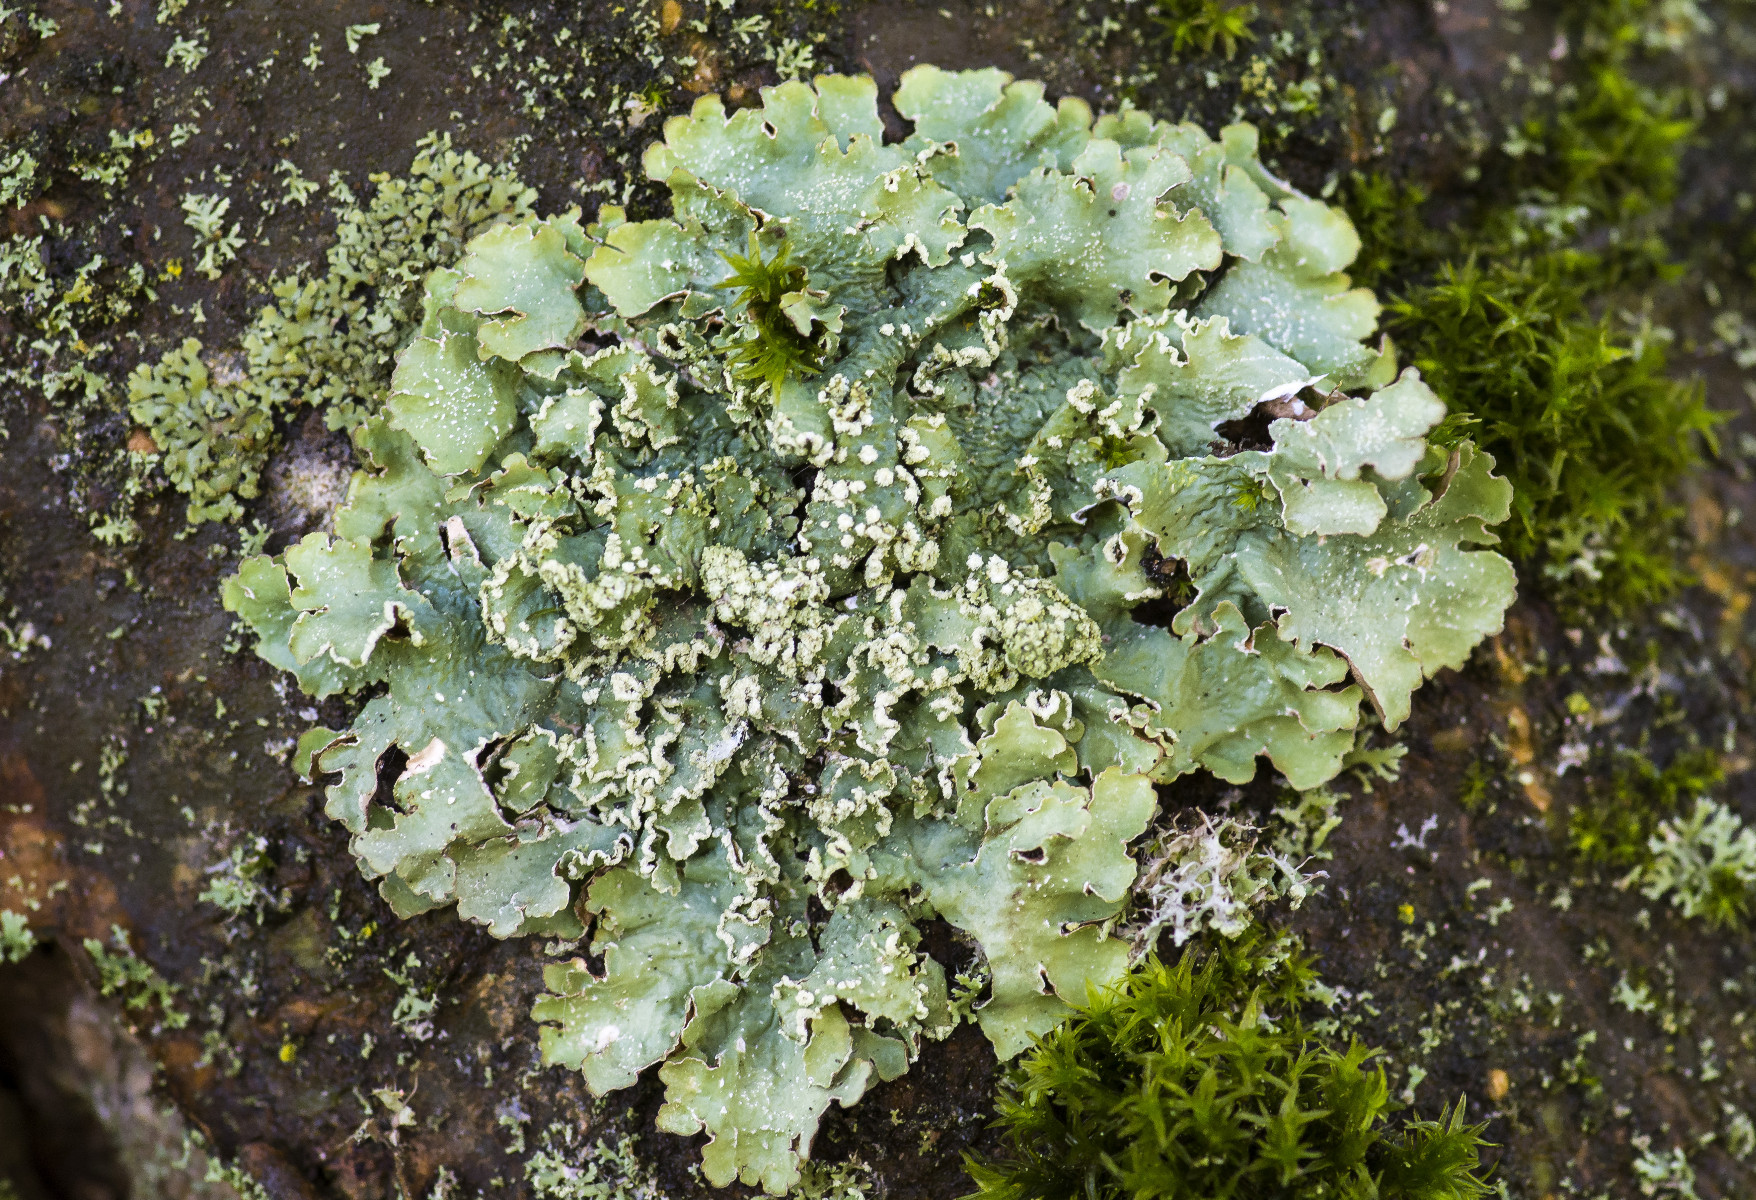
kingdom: Fungi
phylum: Ascomycota
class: Lecanoromycetes
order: Lecanorales
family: Parmeliaceae
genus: Punctelia
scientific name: Punctelia jeckeri
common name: randstøvet skållav
